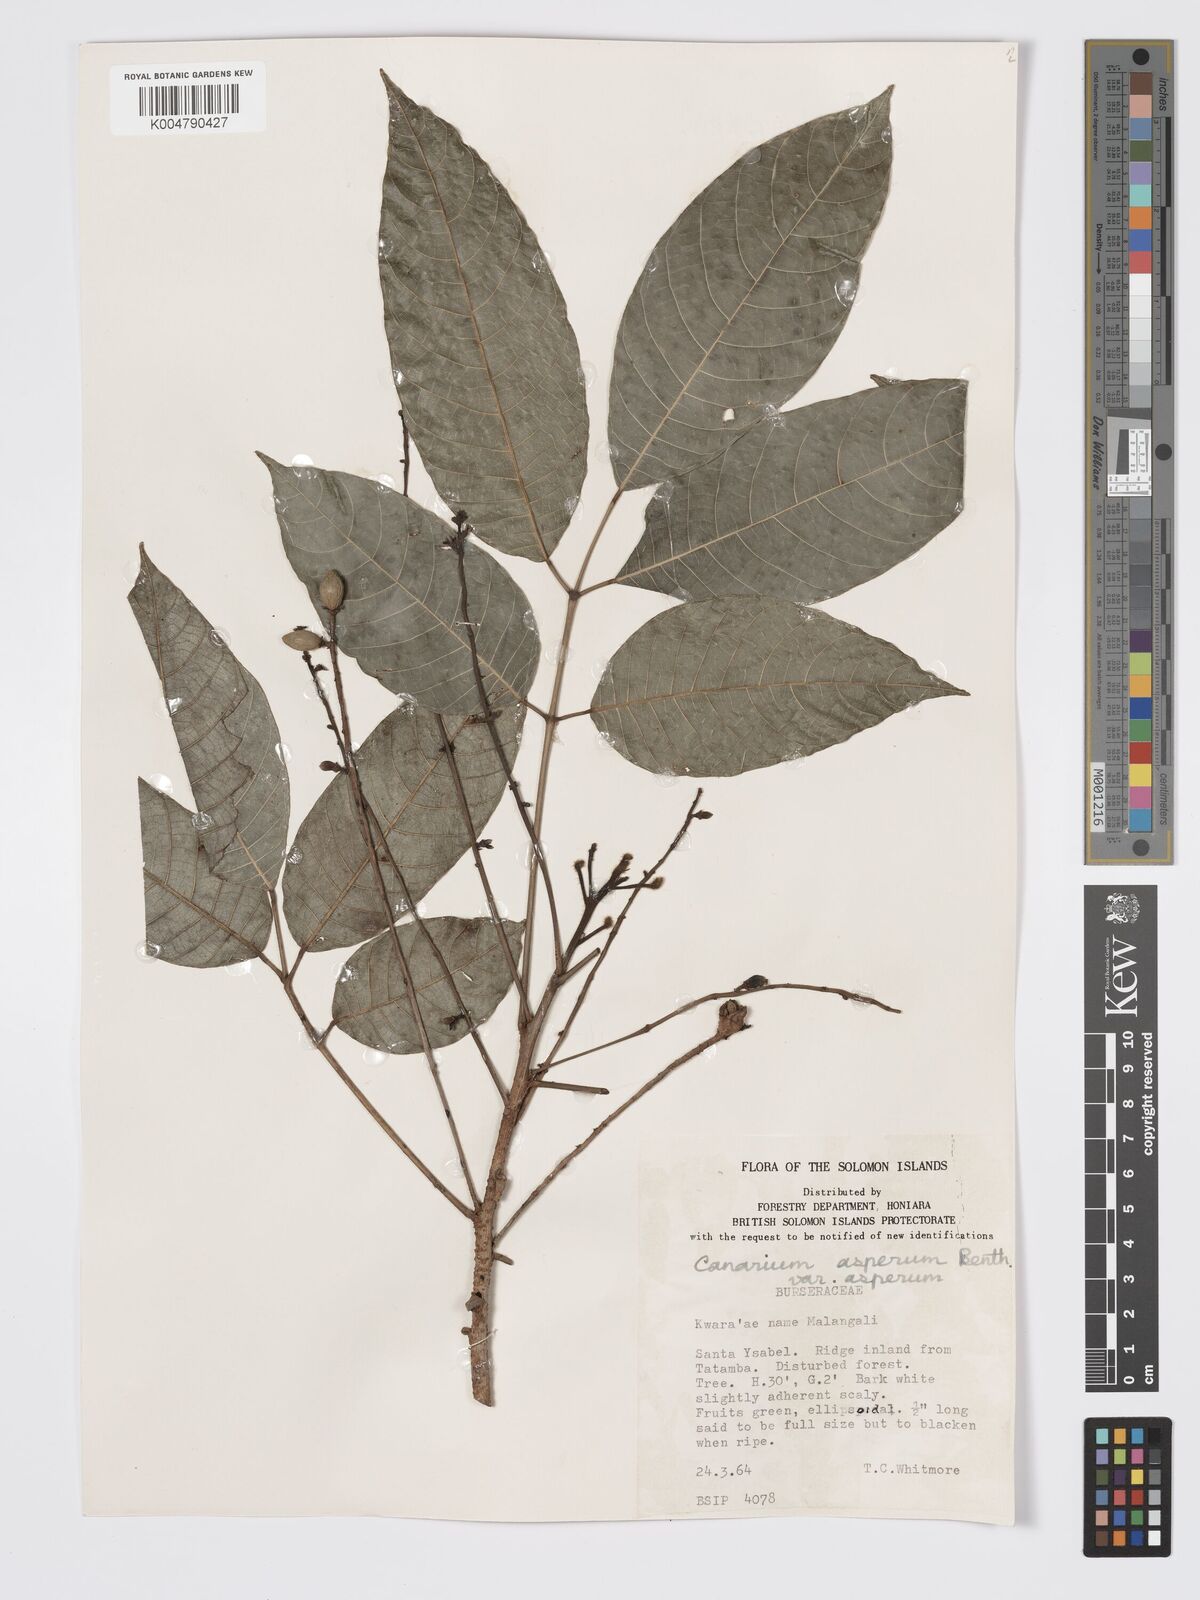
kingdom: Plantae
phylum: Tracheophyta
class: Magnoliopsida
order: Sapindales
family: Burseraceae
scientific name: Burseraceae
